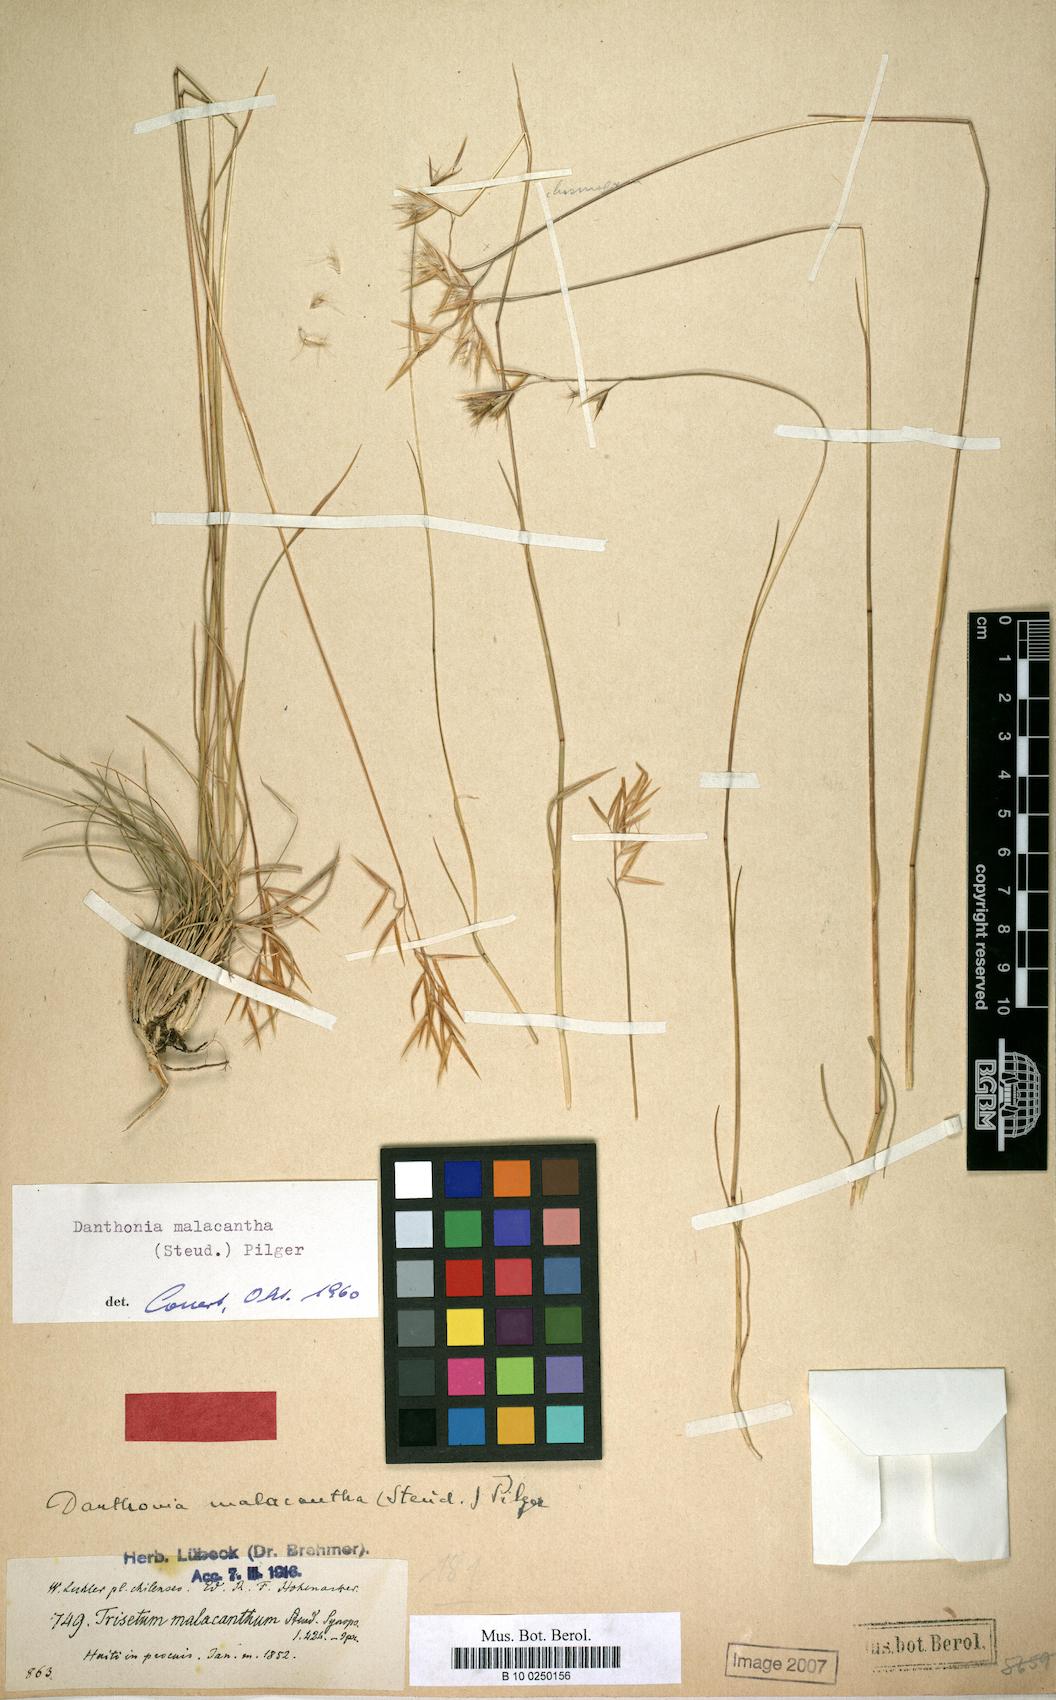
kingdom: Plantae
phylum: Tracheophyta
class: Liliopsida
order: Poales
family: Poaceae
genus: Danthonia
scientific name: Danthonia malacantha
